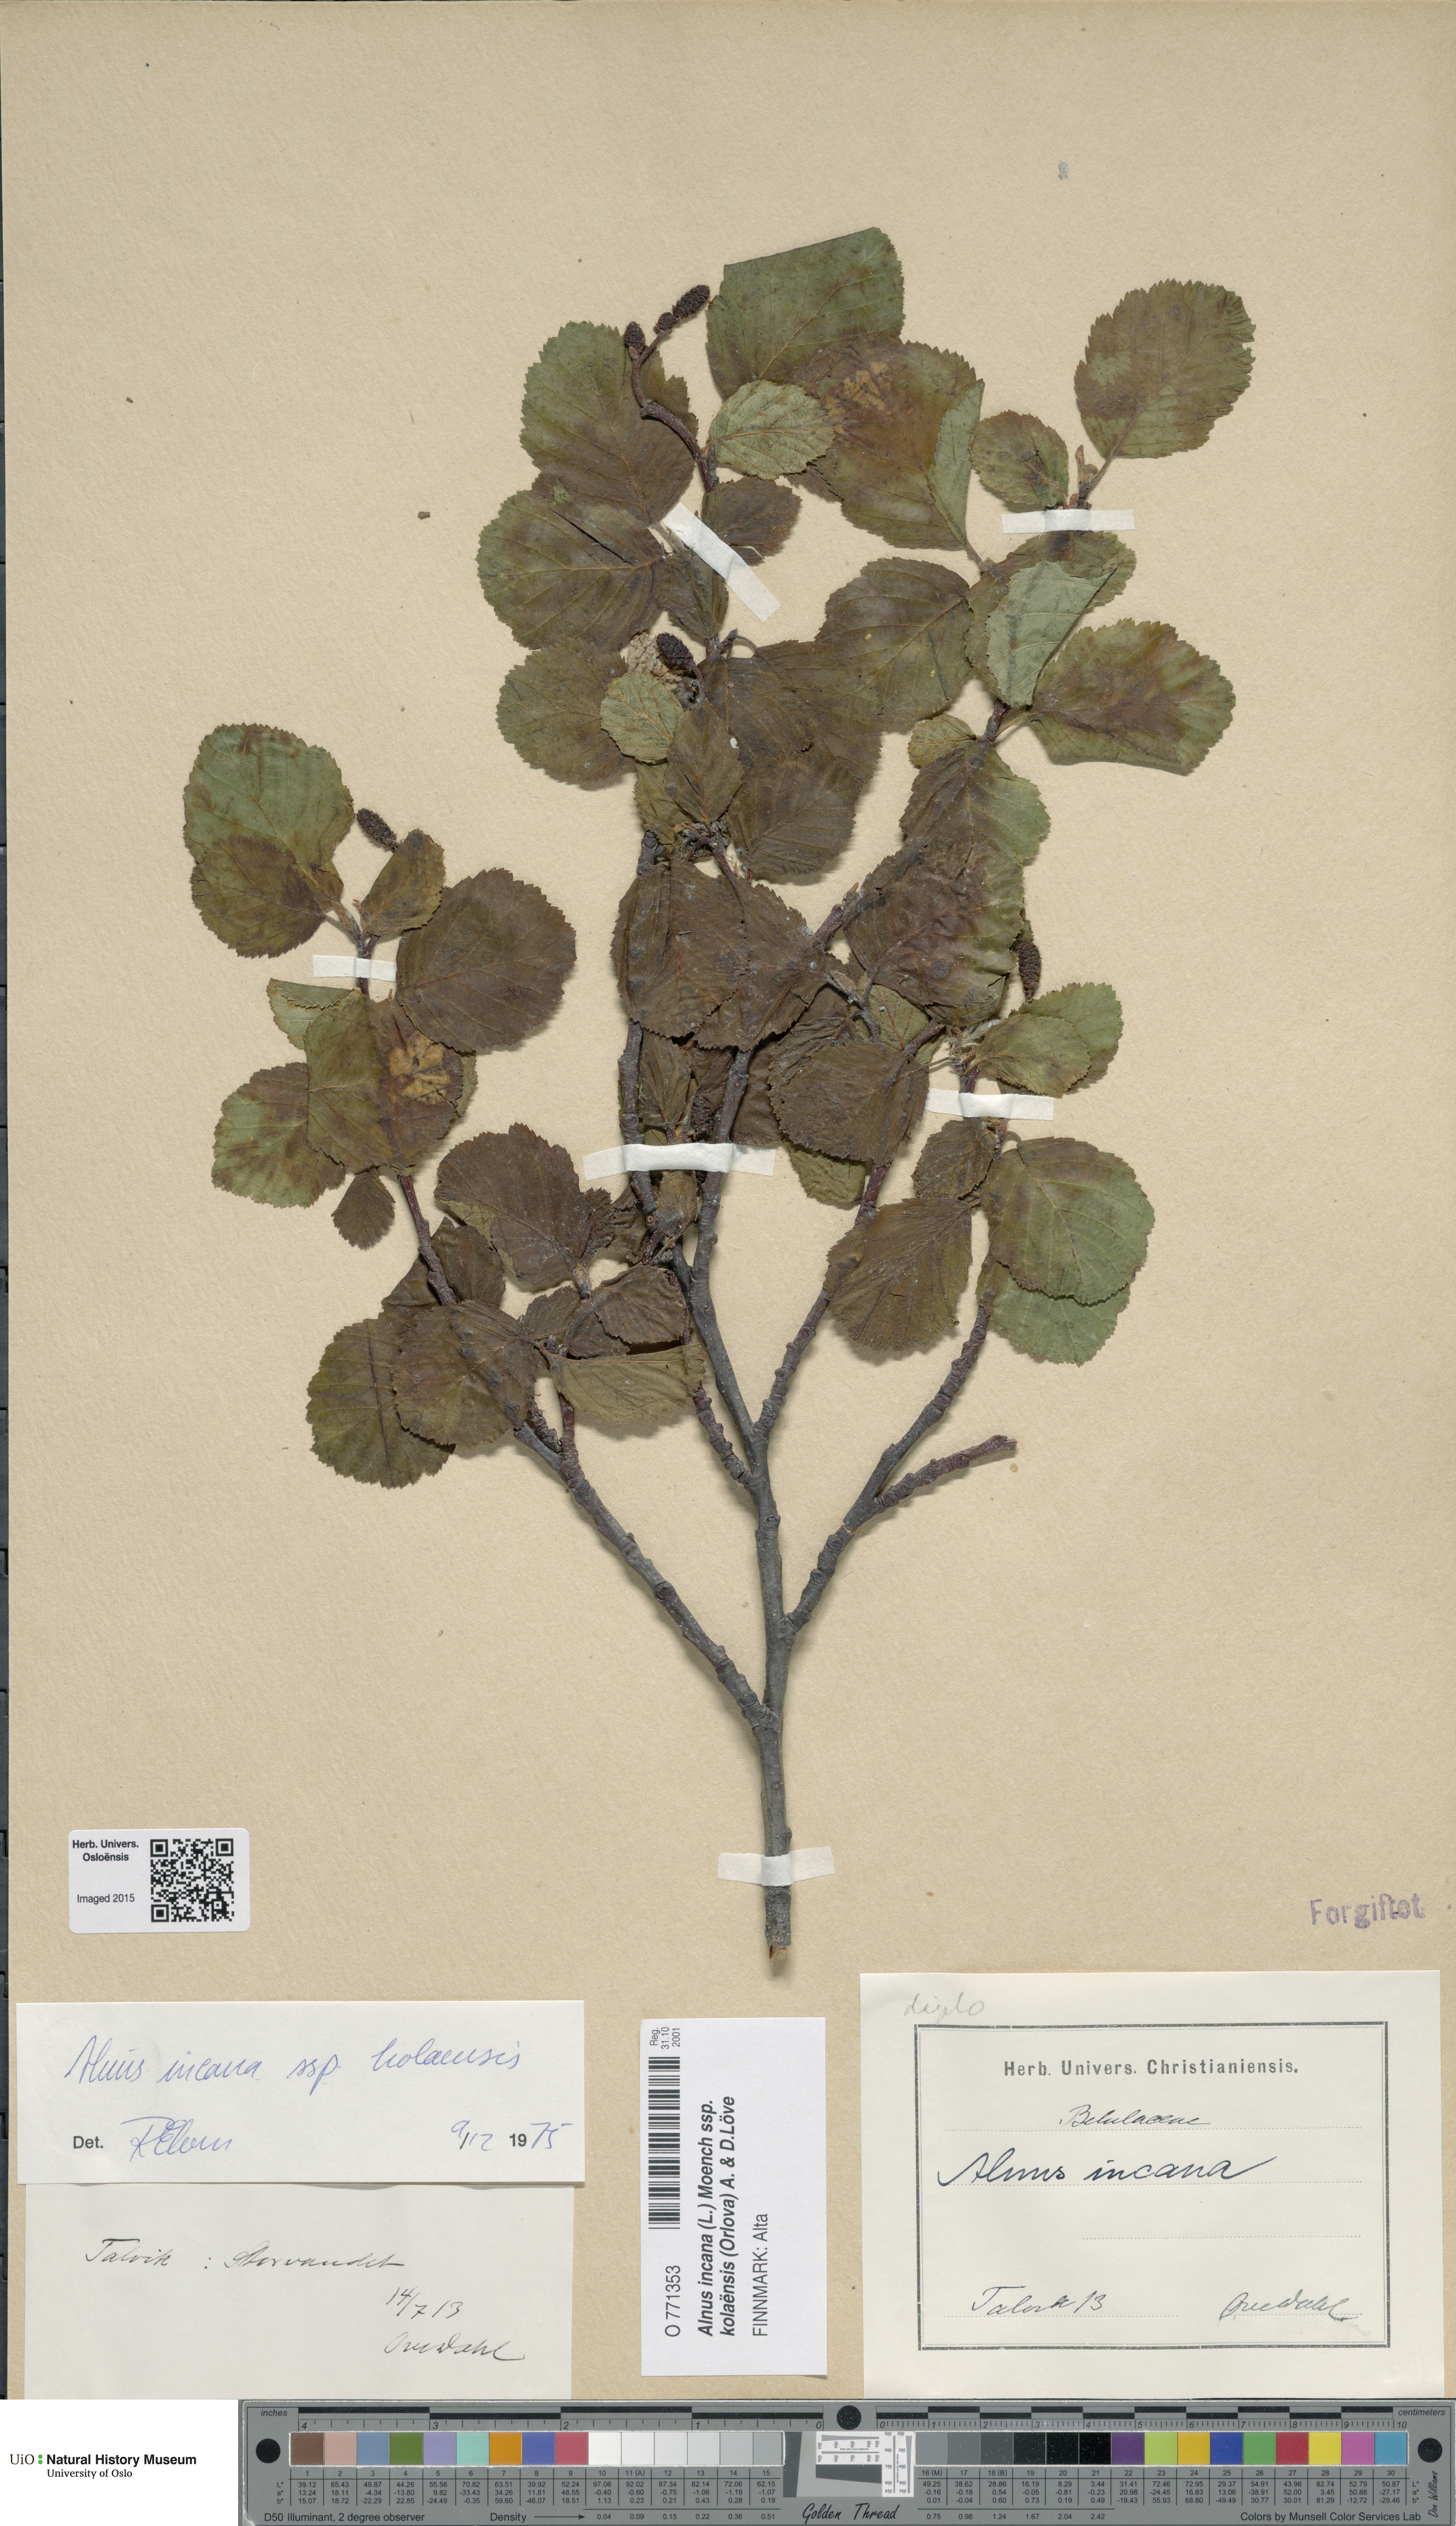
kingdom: Plantae
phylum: Tracheophyta
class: Magnoliopsida
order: Fagales
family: Betulaceae
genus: Alnus
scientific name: Alnus incana
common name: Grey alder
